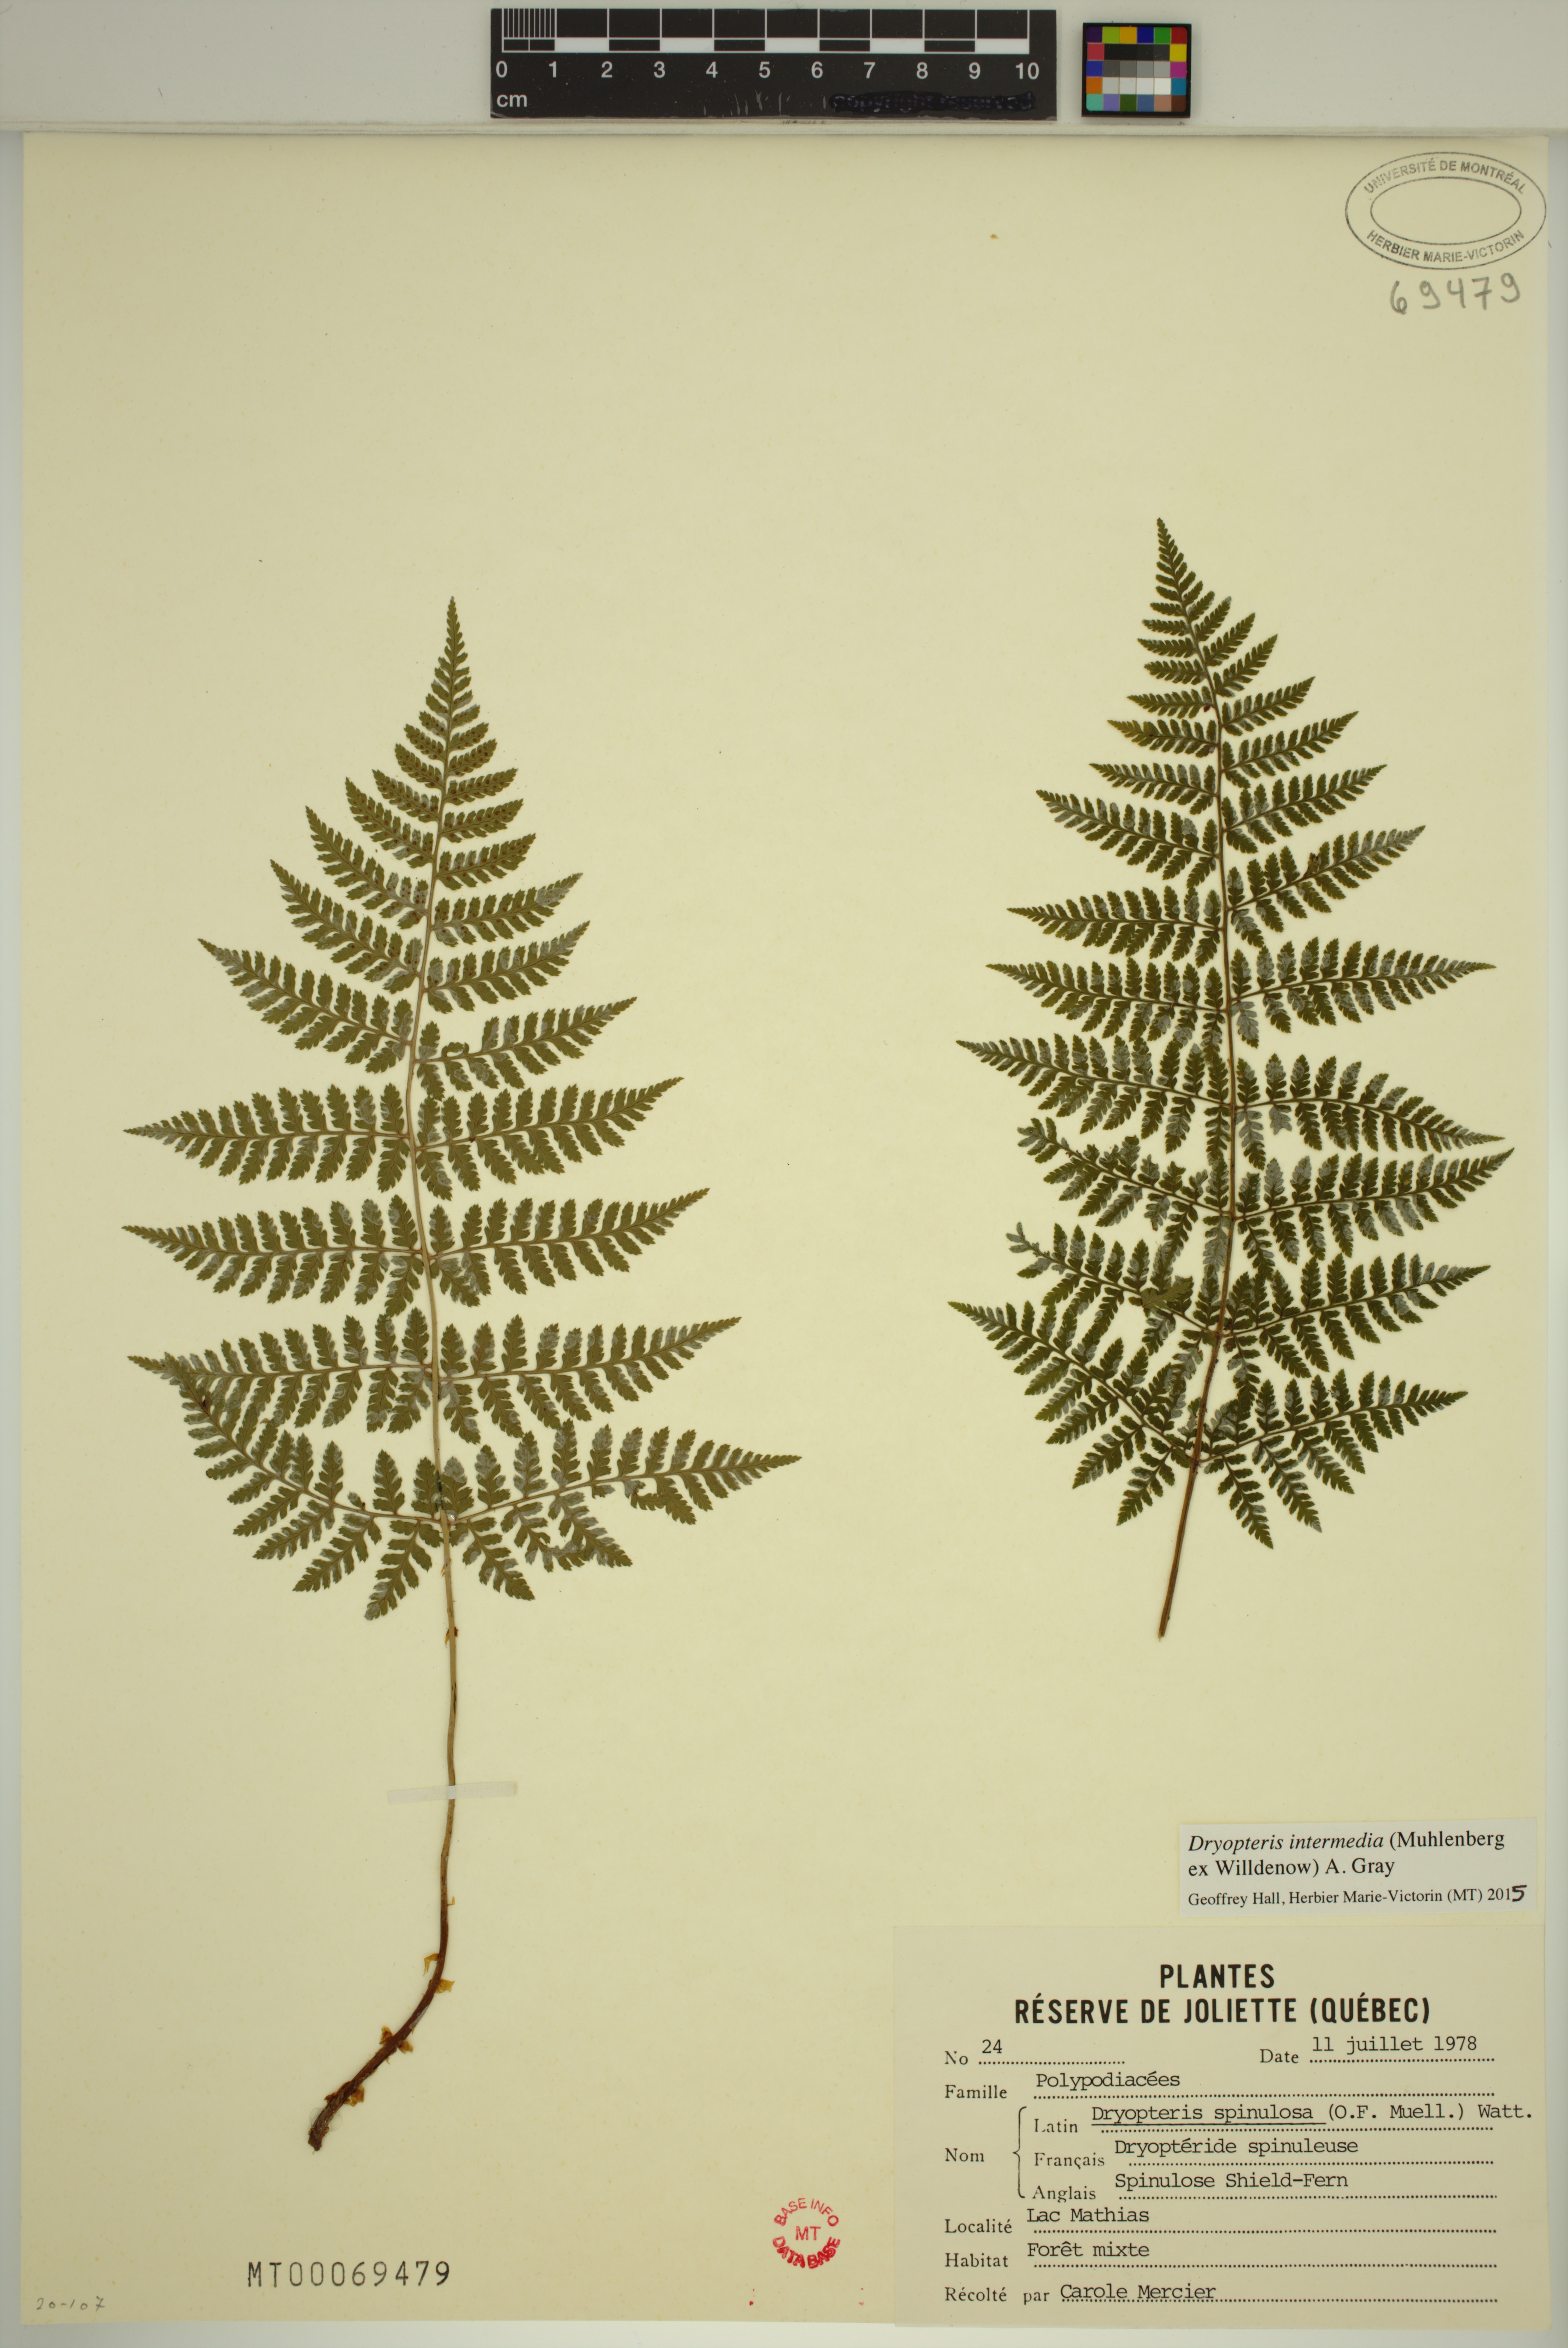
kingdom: Plantae
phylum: Tracheophyta
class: Polypodiopsida
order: Polypodiales
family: Dryopteridaceae
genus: Dryopteris
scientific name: Dryopteris intermedia
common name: Evergreen wood fern
